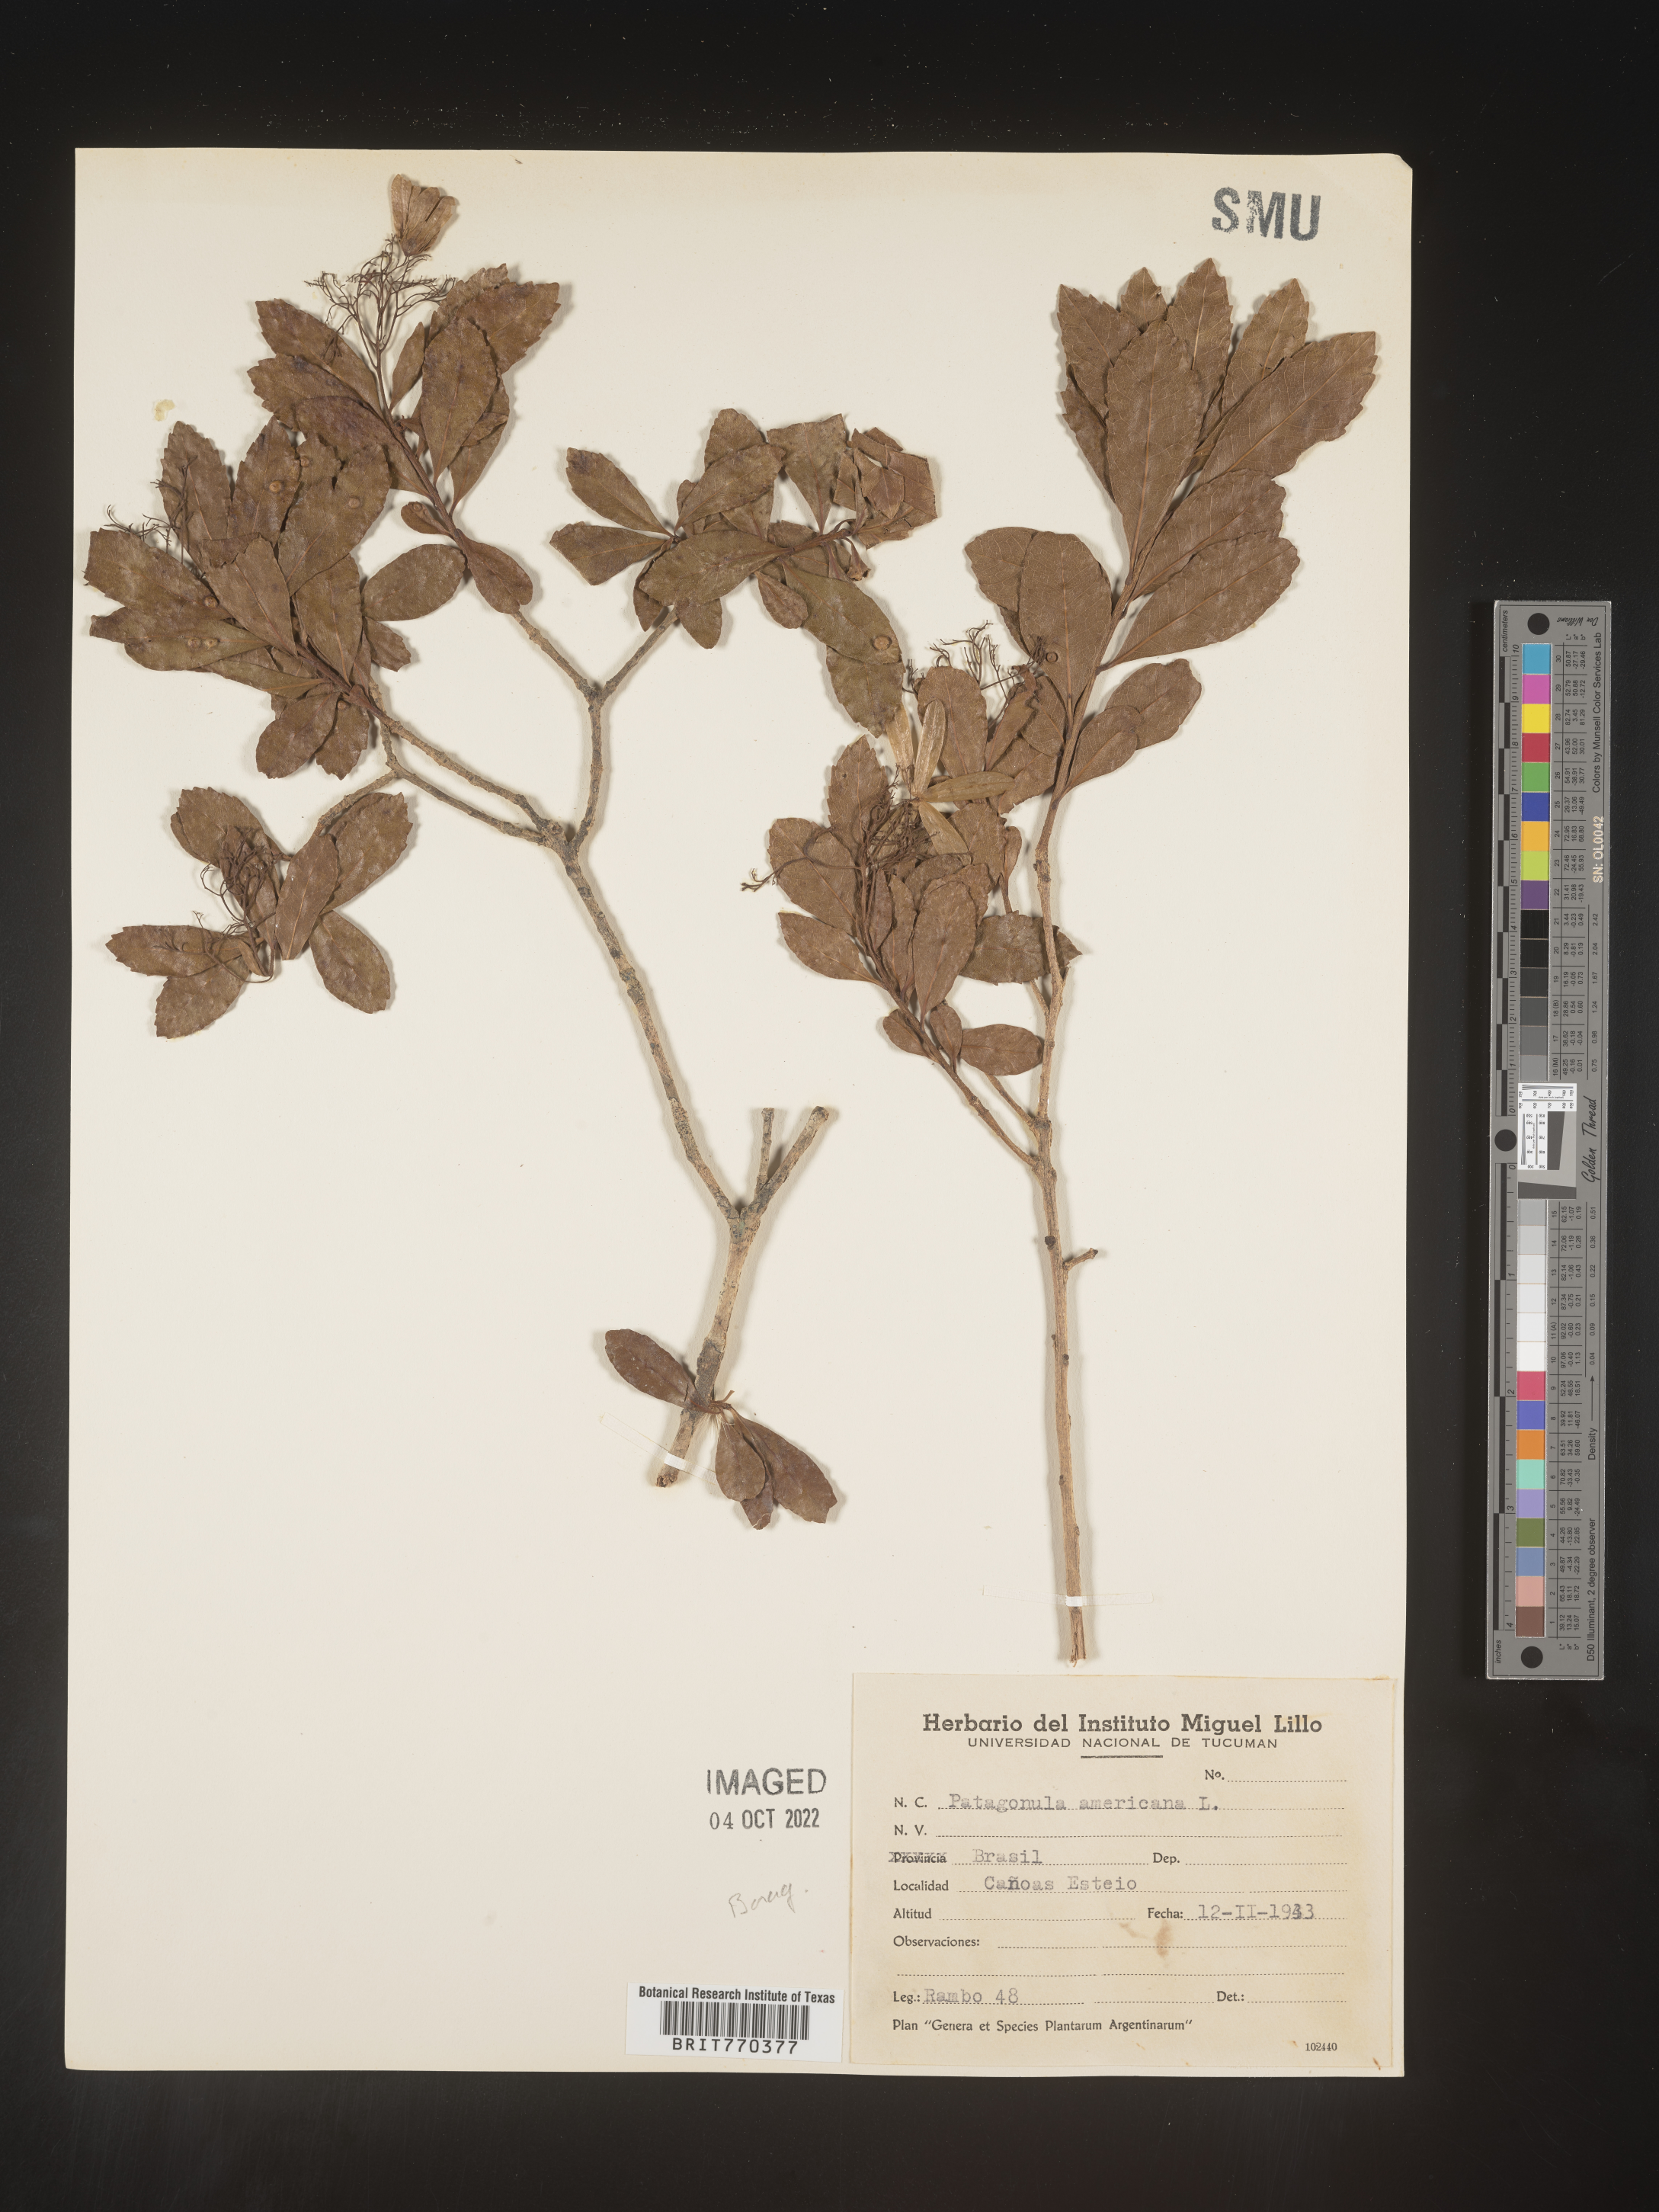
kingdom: Plantae
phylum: Tracheophyta
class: Magnoliopsida
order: Boraginales
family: Cordiaceae
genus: Cordia
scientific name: Cordia americana
